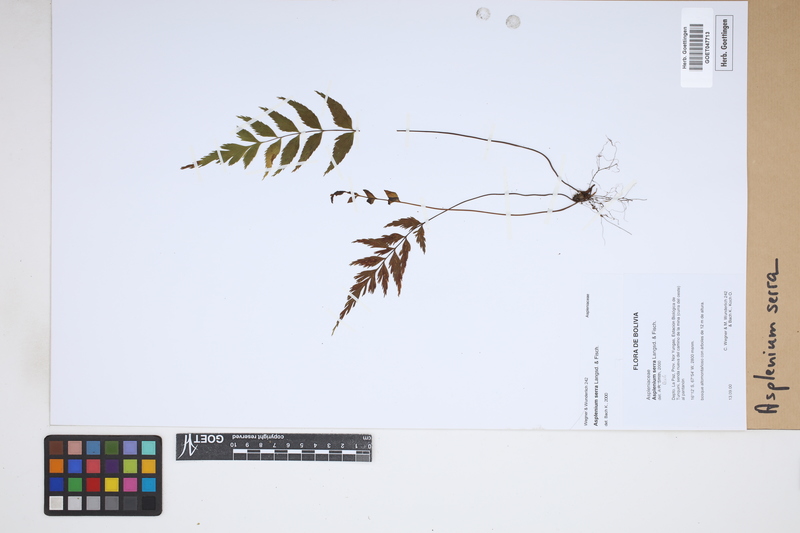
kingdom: Plantae
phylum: Tracheophyta
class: Polypodiopsida
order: Polypodiales
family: Aspleniaceae
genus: Asplenium
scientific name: Asplenium serra
